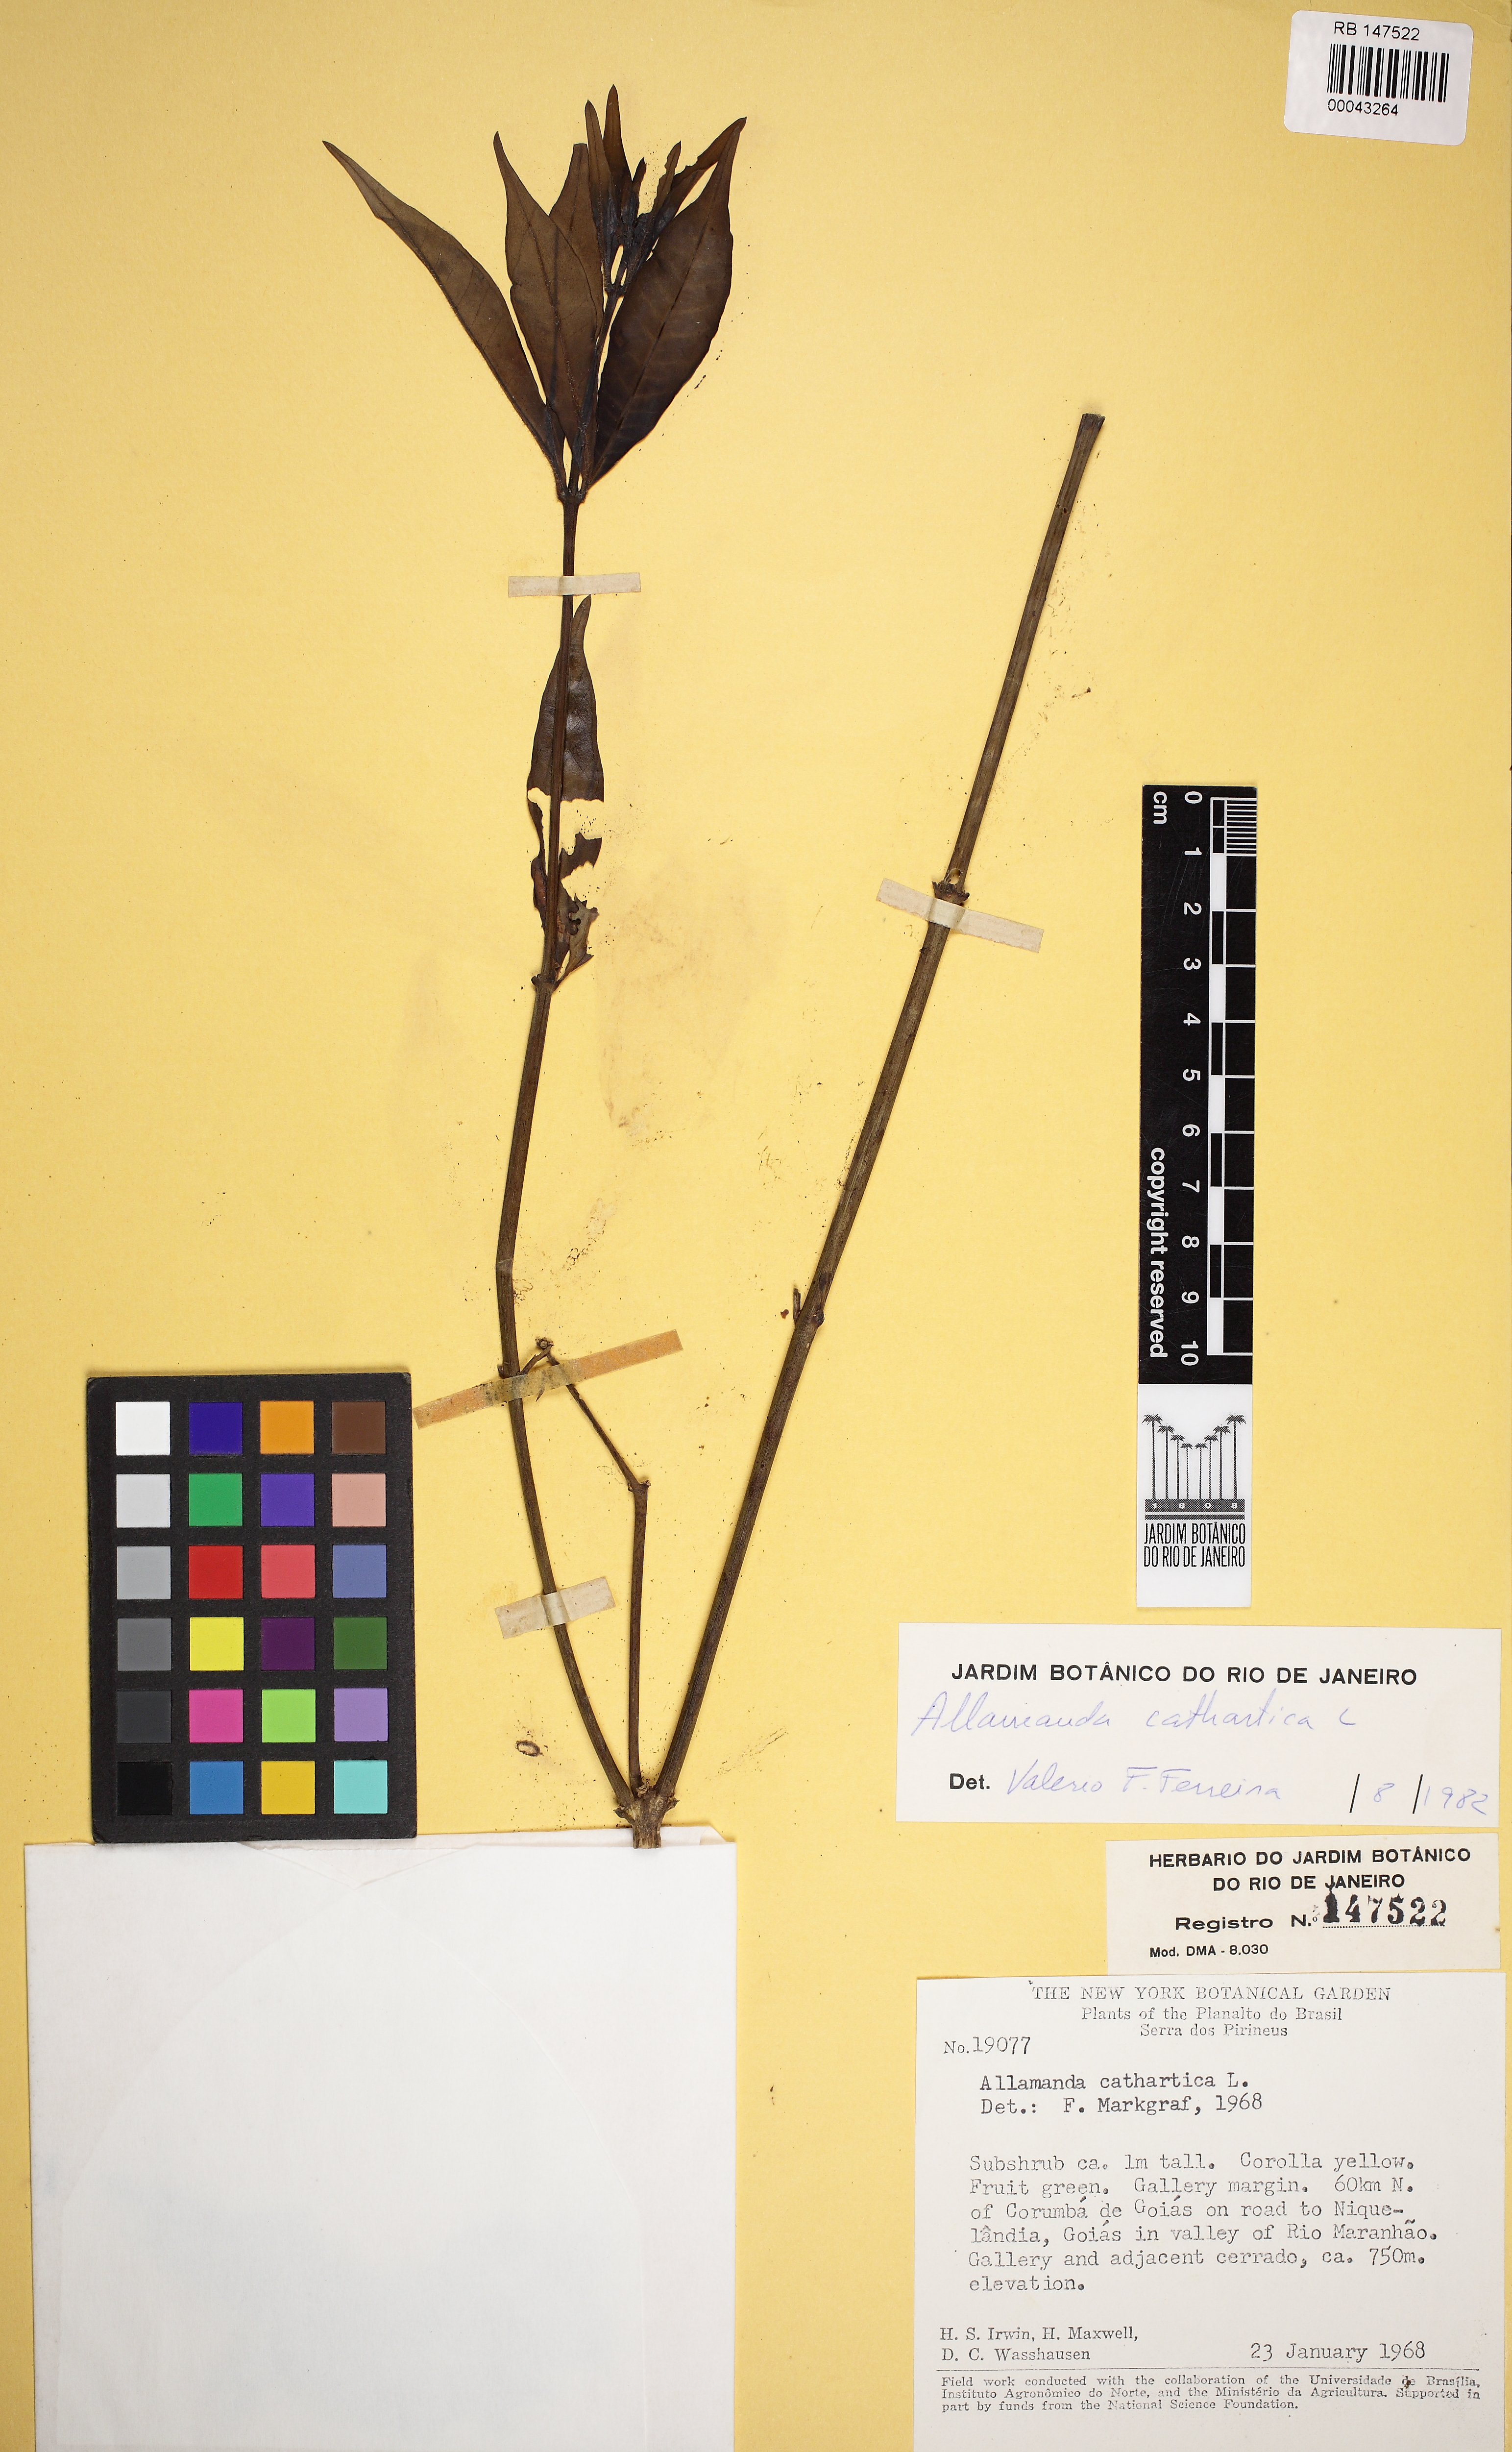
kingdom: Plantae
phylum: Tracheophyta
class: Magnoliopsida
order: Gentianales
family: Apocynaceae
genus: Allamanda
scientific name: Allamanda cathartica
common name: Golden trumpet
